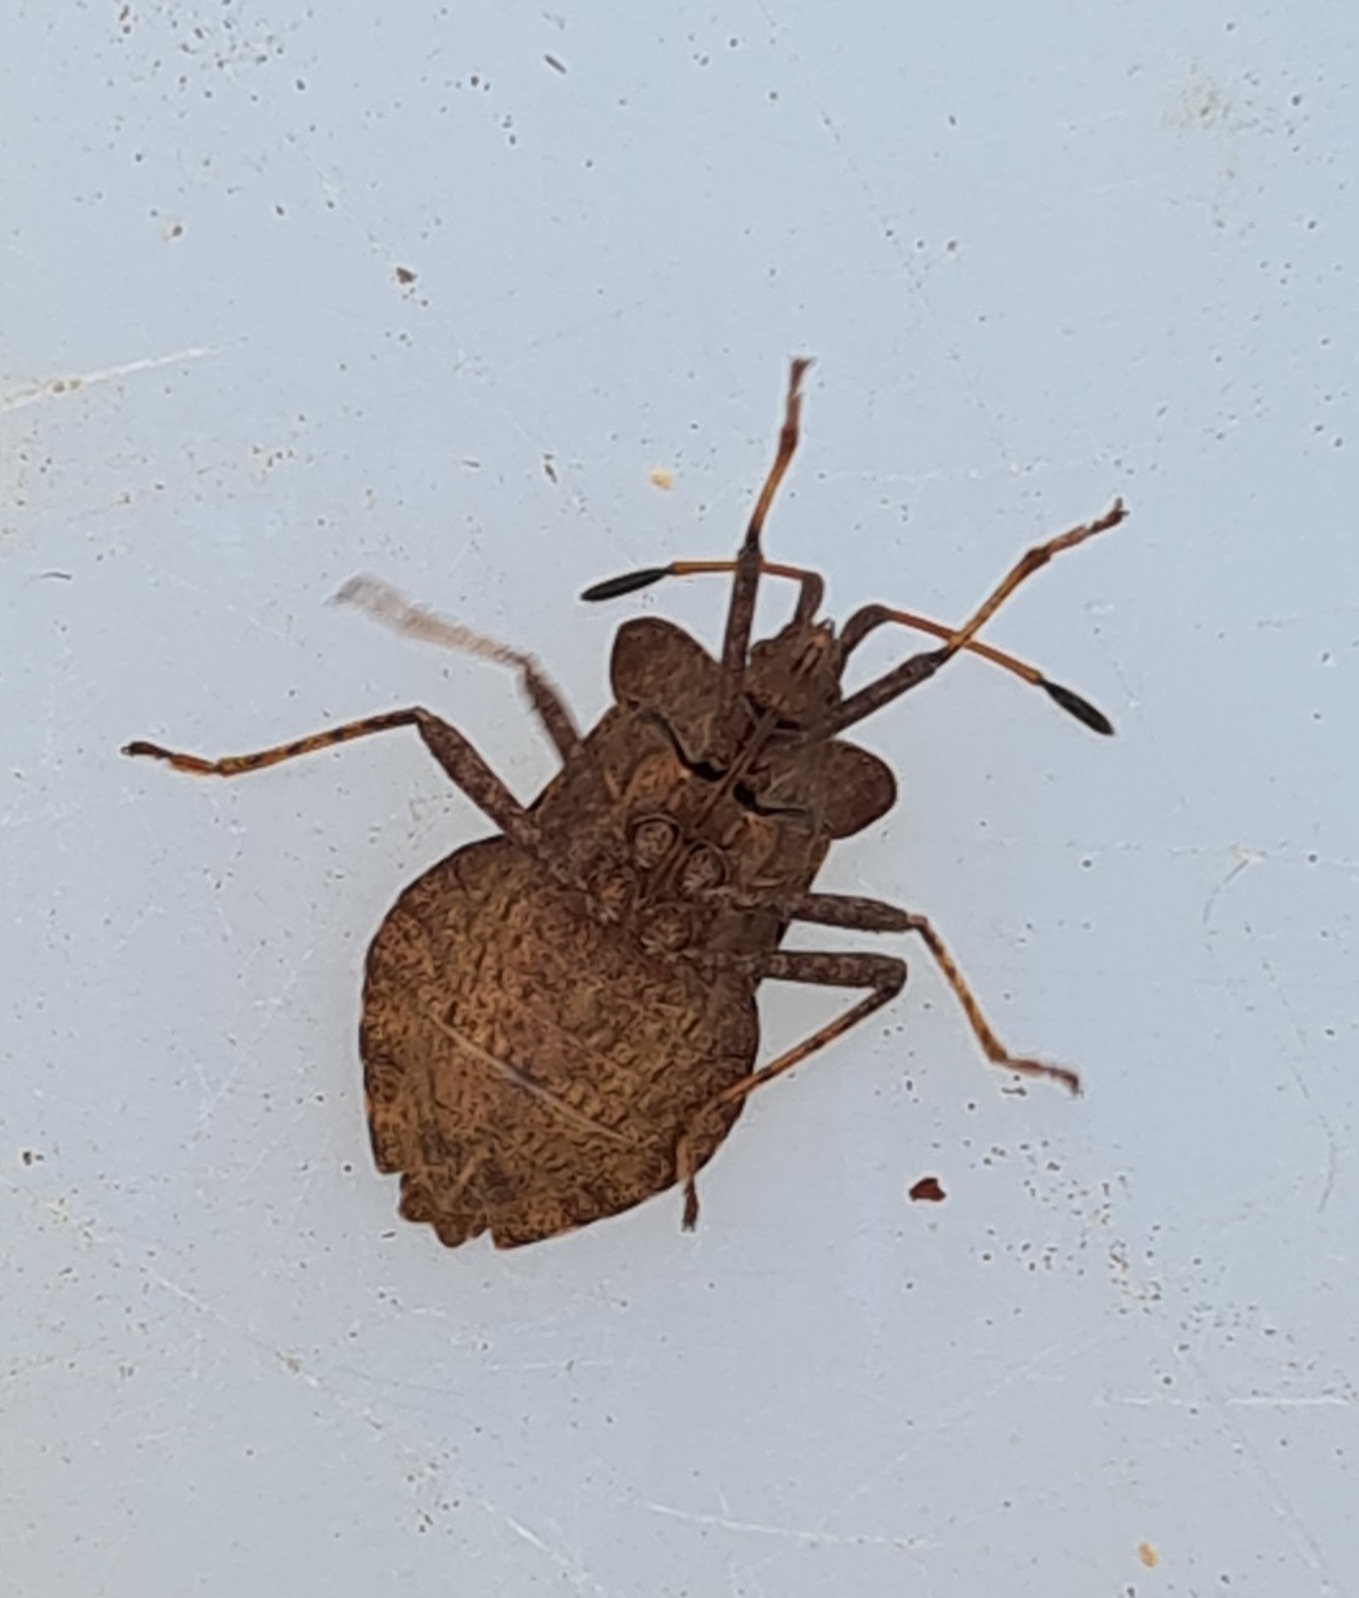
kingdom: Animalia
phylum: Arthropoda
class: Insecta
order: Hemiptera
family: Coreidae
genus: Coreus
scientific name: Coreus marginatus
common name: Skræppetæge
